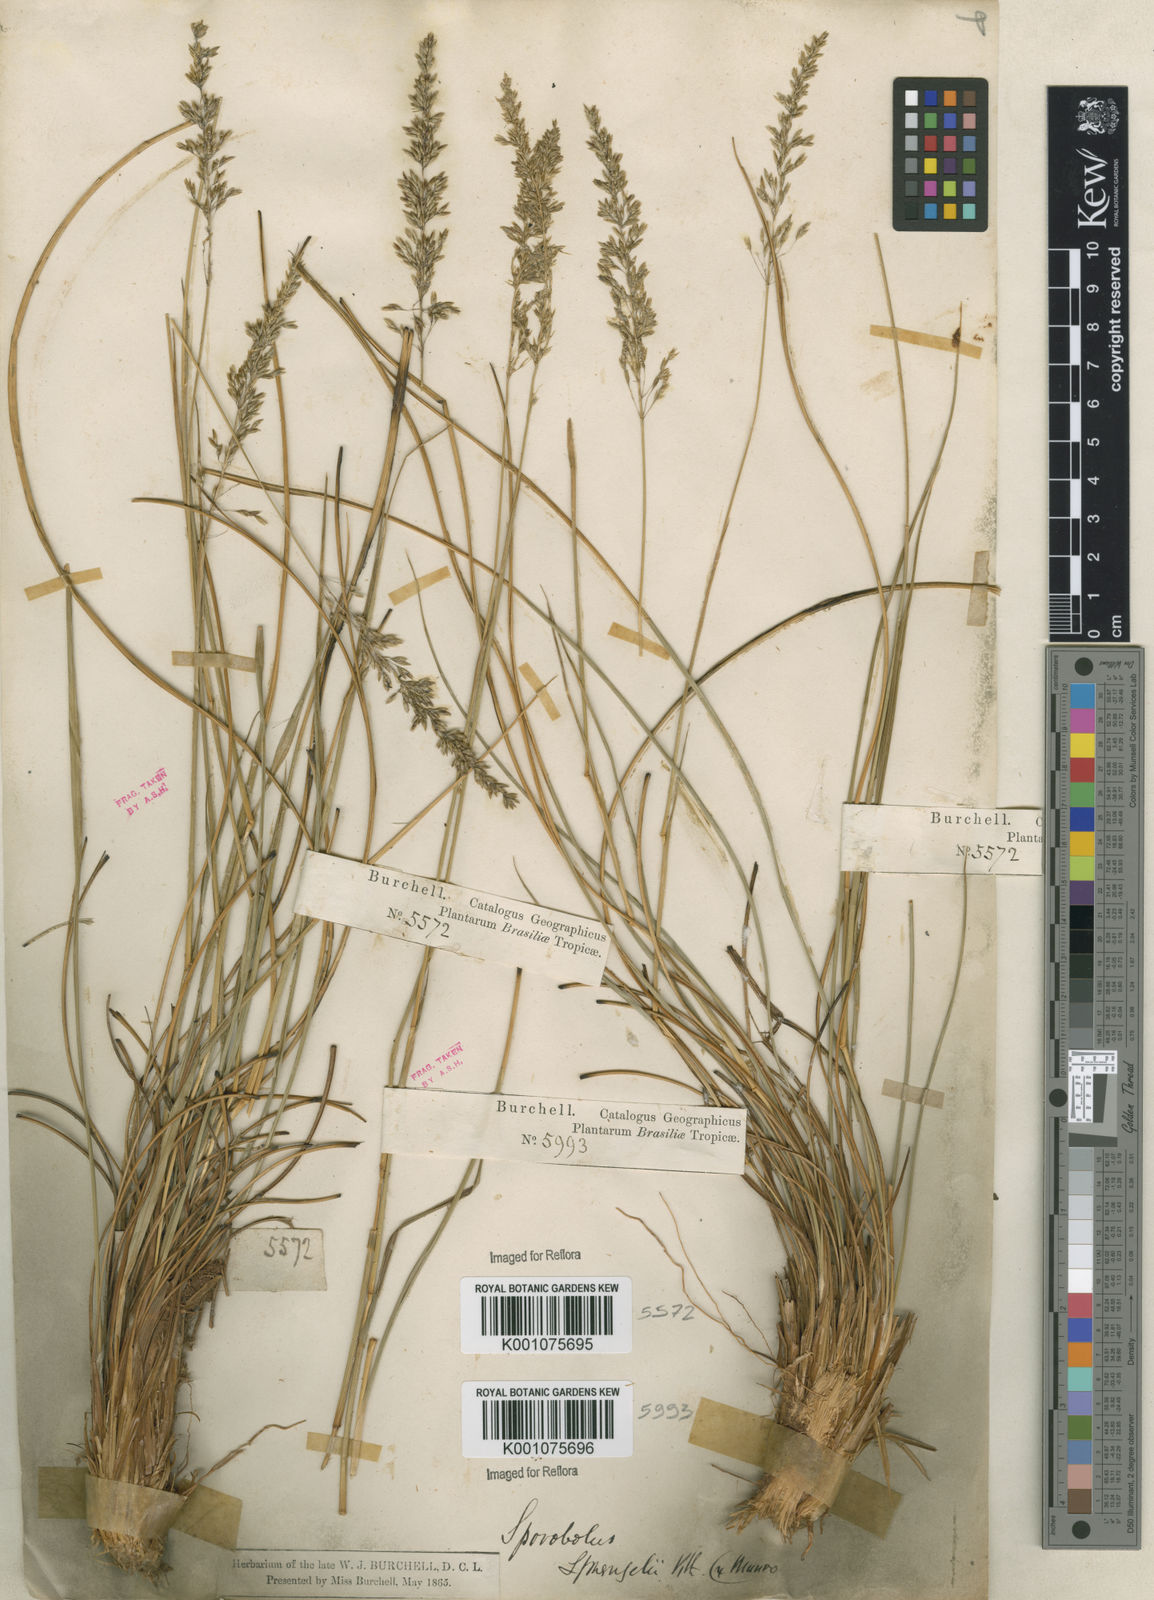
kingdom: Plantae
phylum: Tracheophyta
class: Liliopsida
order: Poales
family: Poaceae
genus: Sporobolus
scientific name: Sporobolus cubensis
